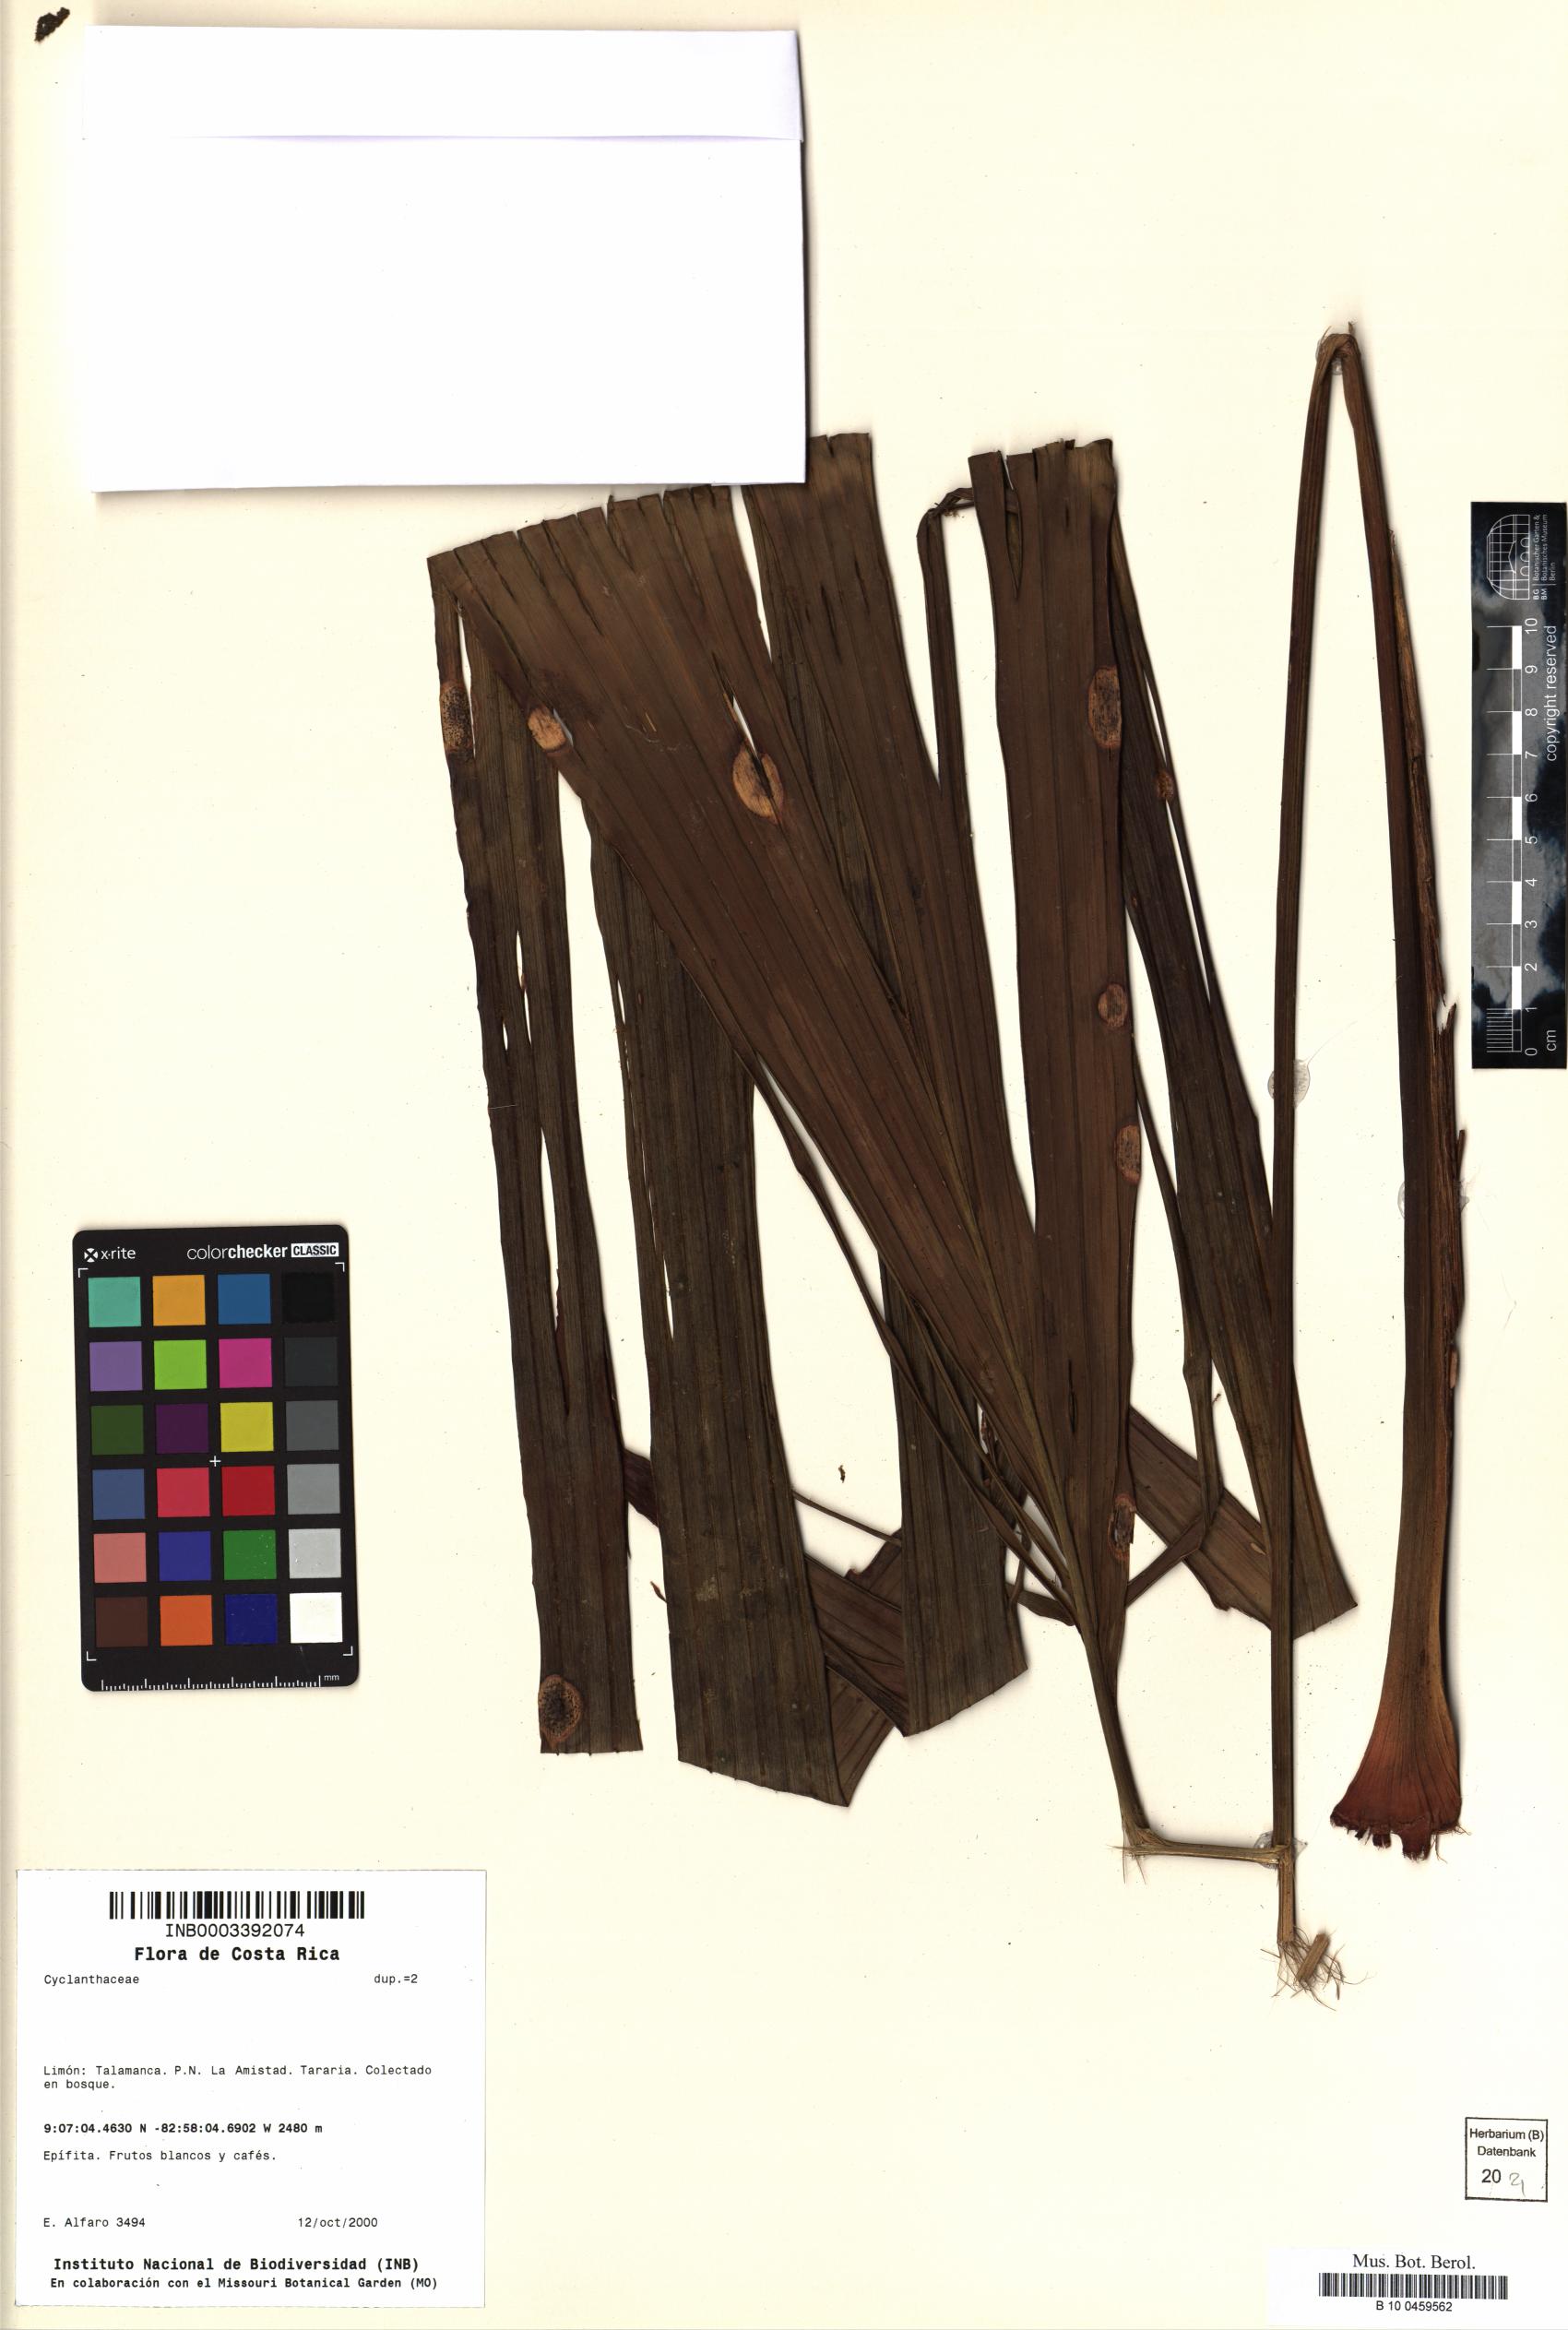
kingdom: Plantae
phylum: Tracheophyta
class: Liliopsida
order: Pandanales
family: Cyclanthaceae
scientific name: Cyclanthaceae
